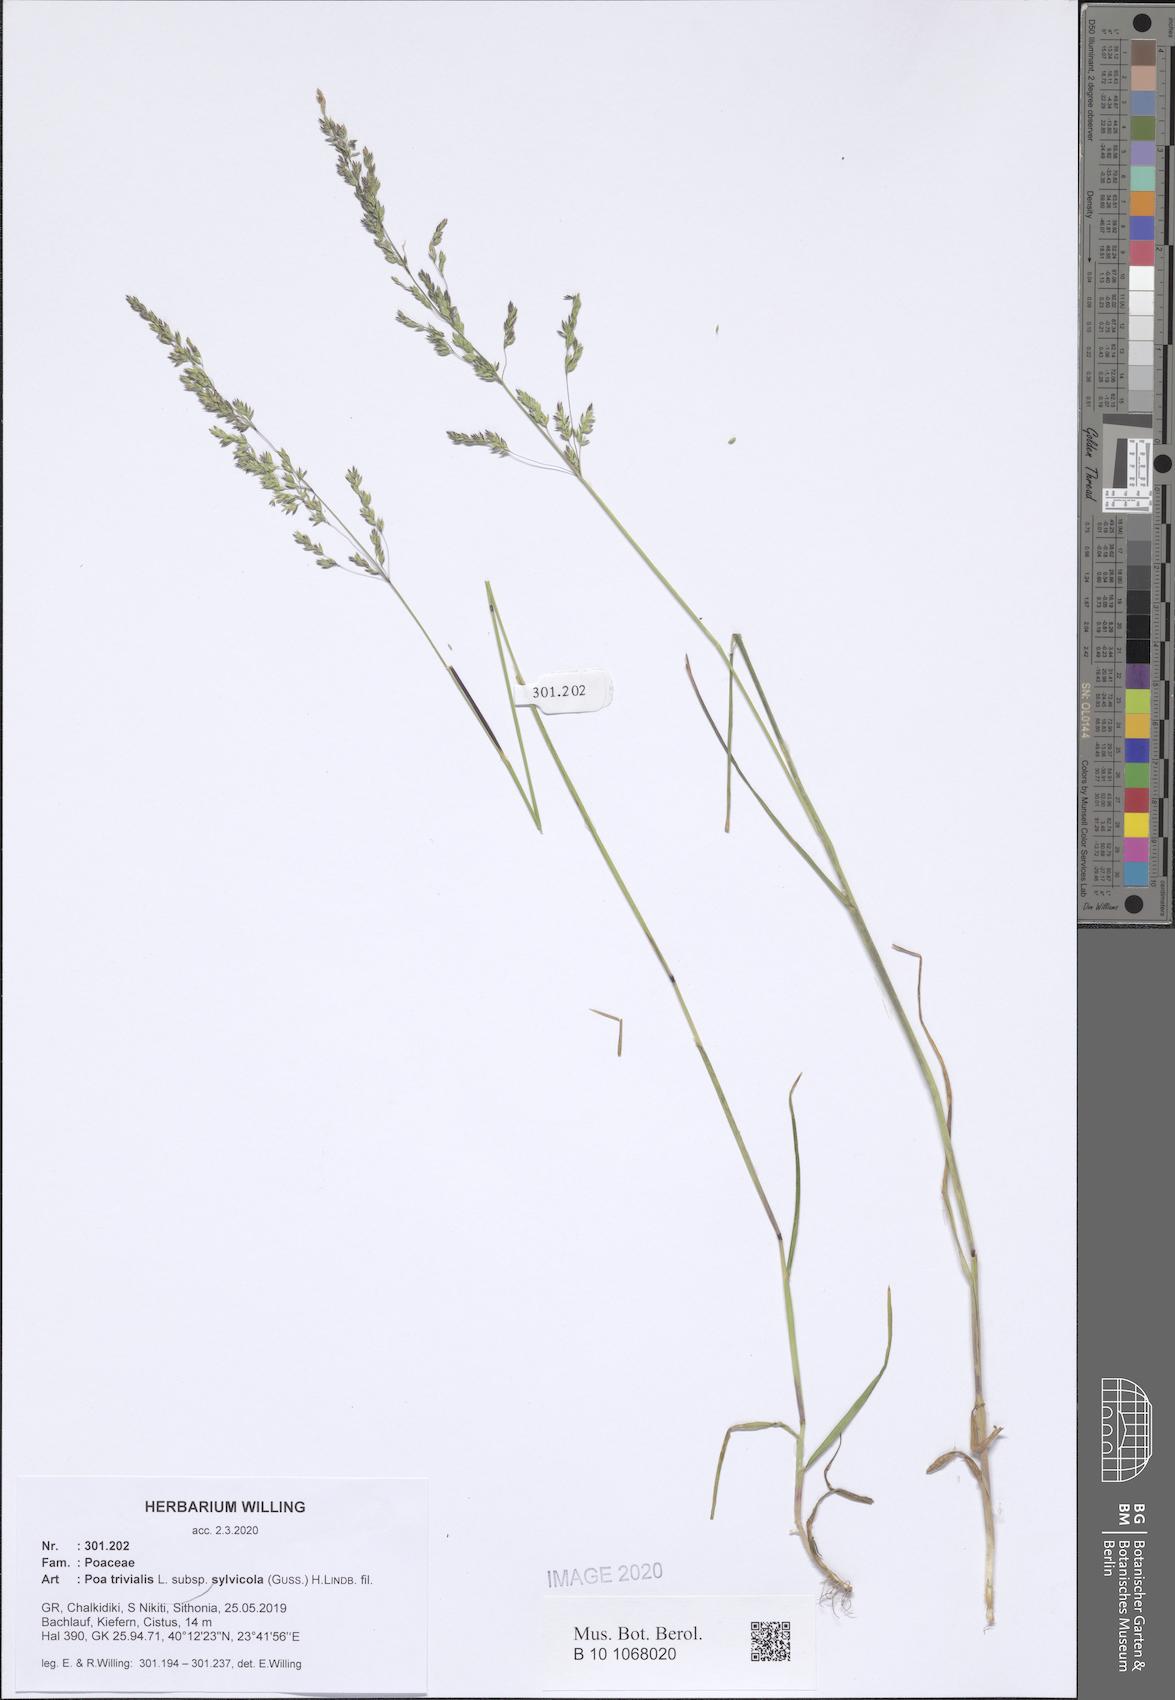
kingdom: Plantae
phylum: Tracheophyta
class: Liliopsida
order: Poales
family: Poaceae
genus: Poa
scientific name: Poa trivialis
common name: Rough bluegrass
